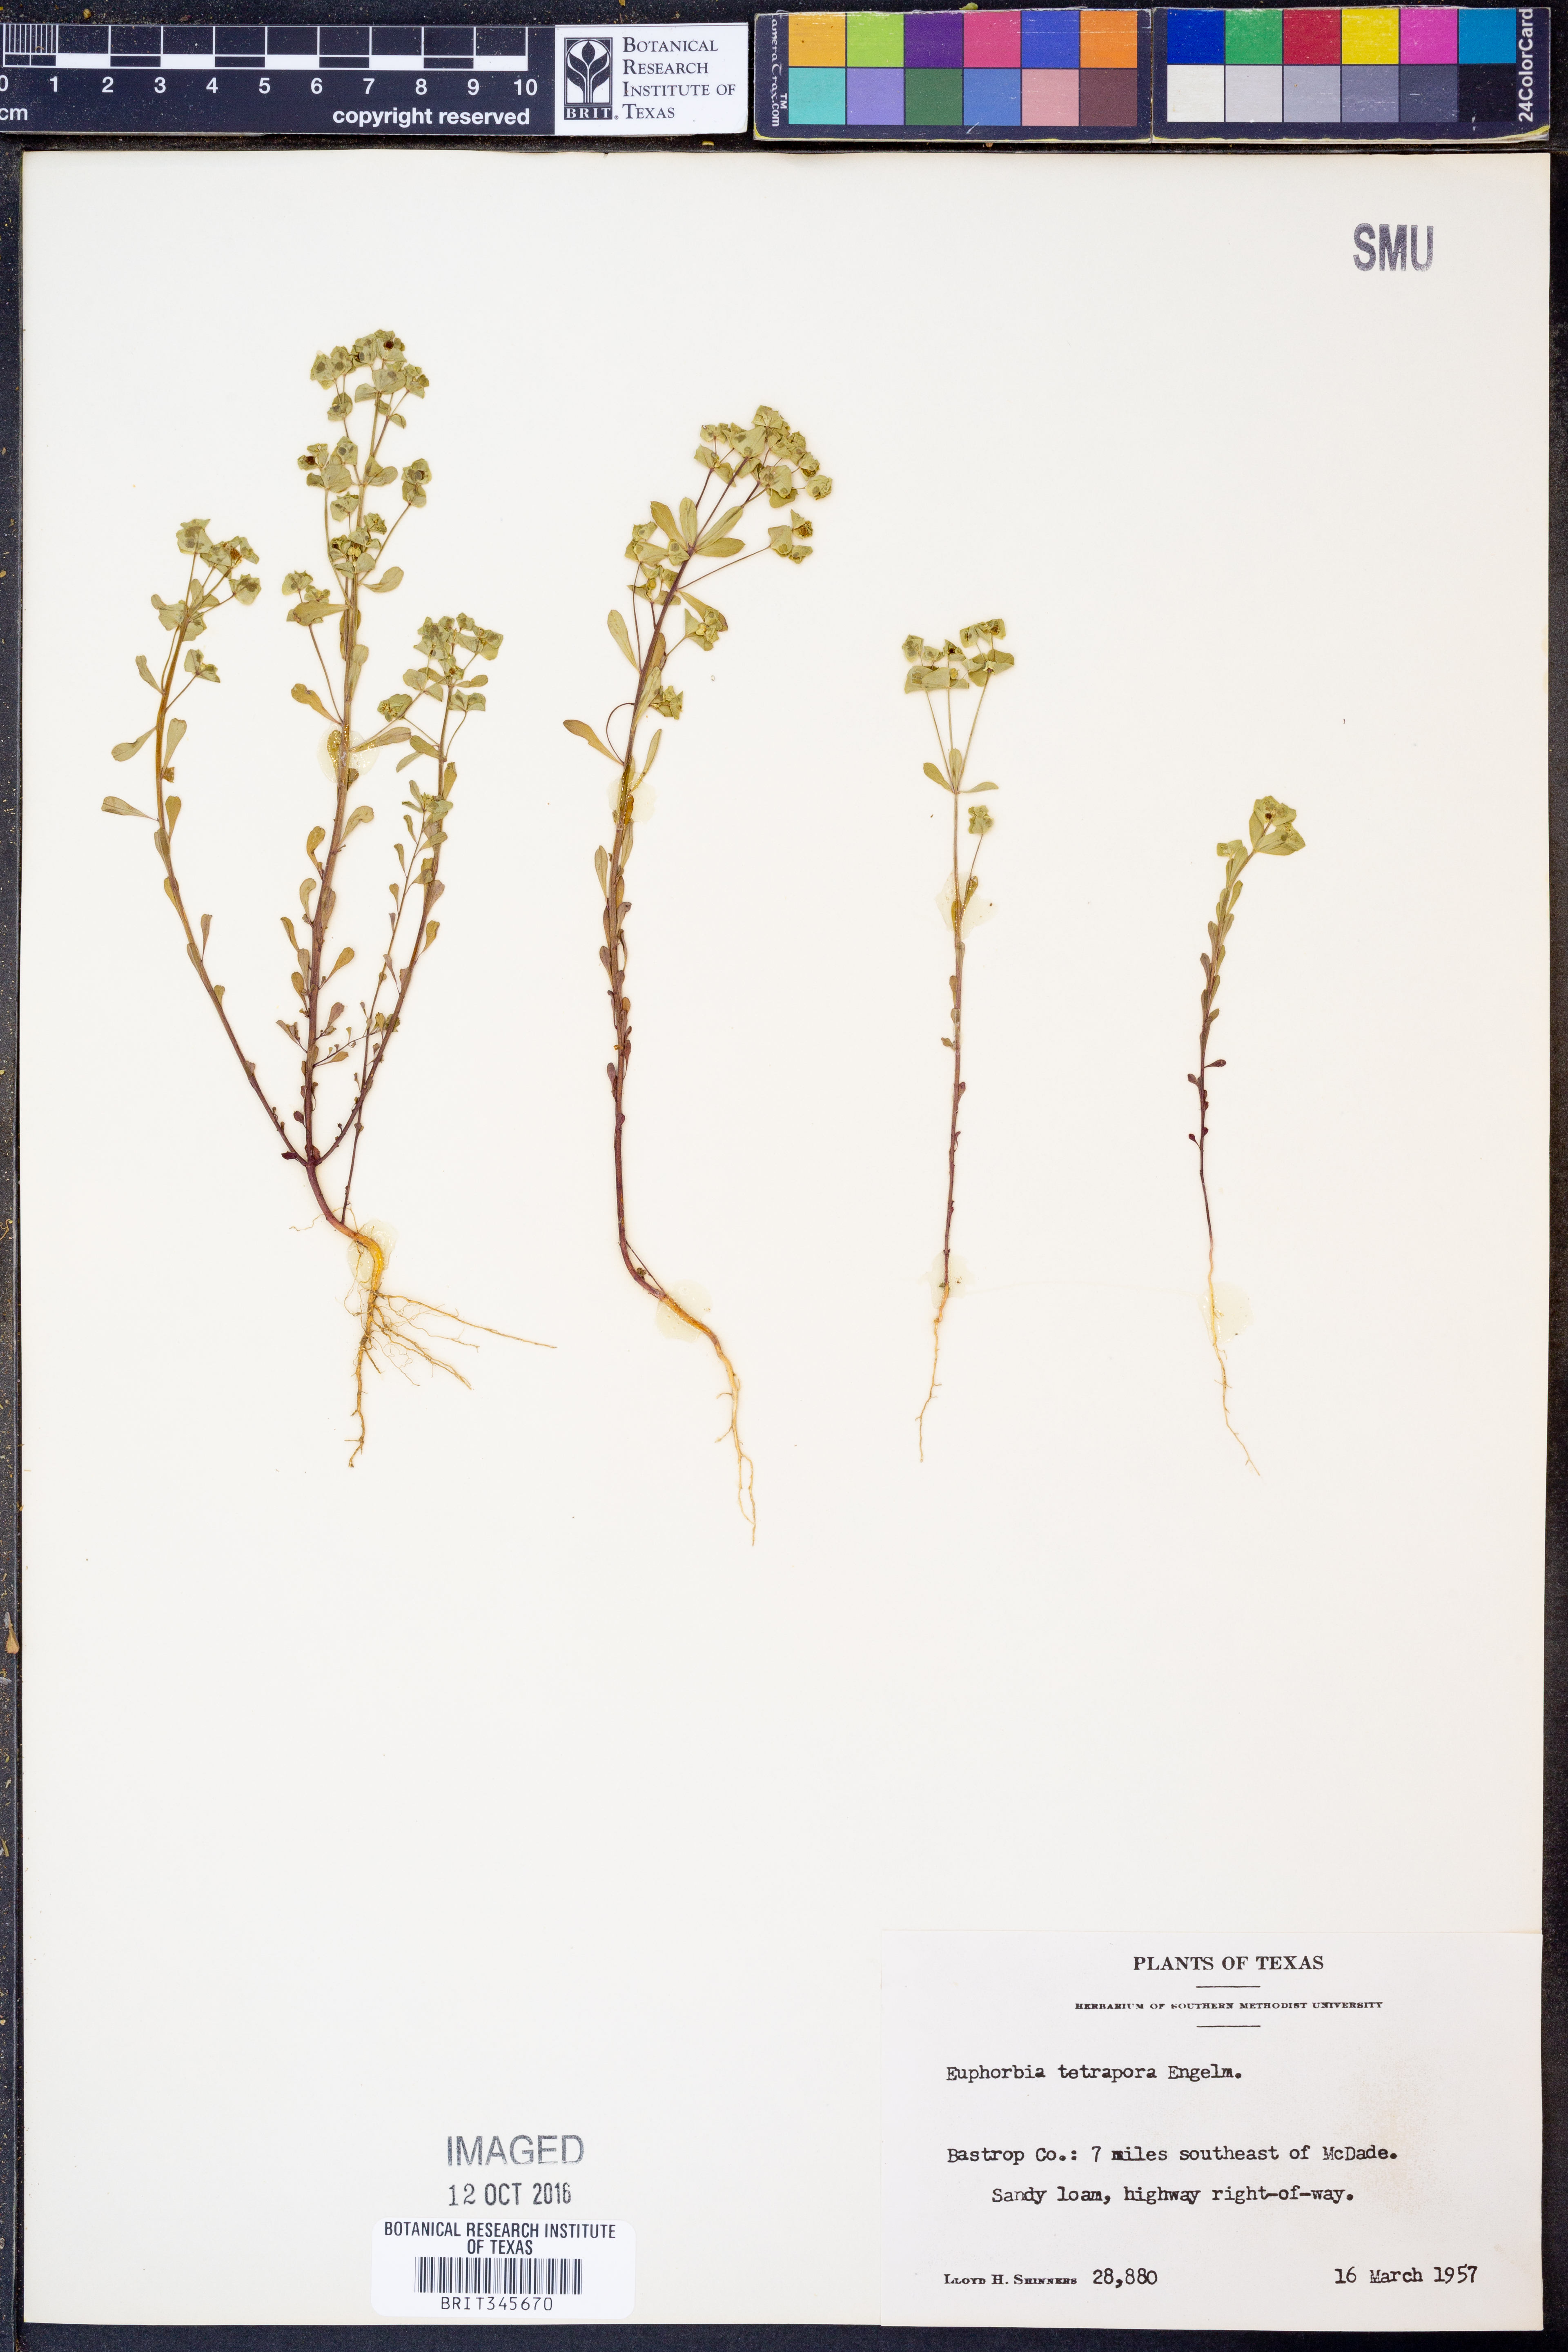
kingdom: Plantae
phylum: Tracheophyta
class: Magnoliopsida
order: Malpighiales
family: Euphorbiaceae
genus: Euphorbia
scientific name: Euphorbia tetrapora
